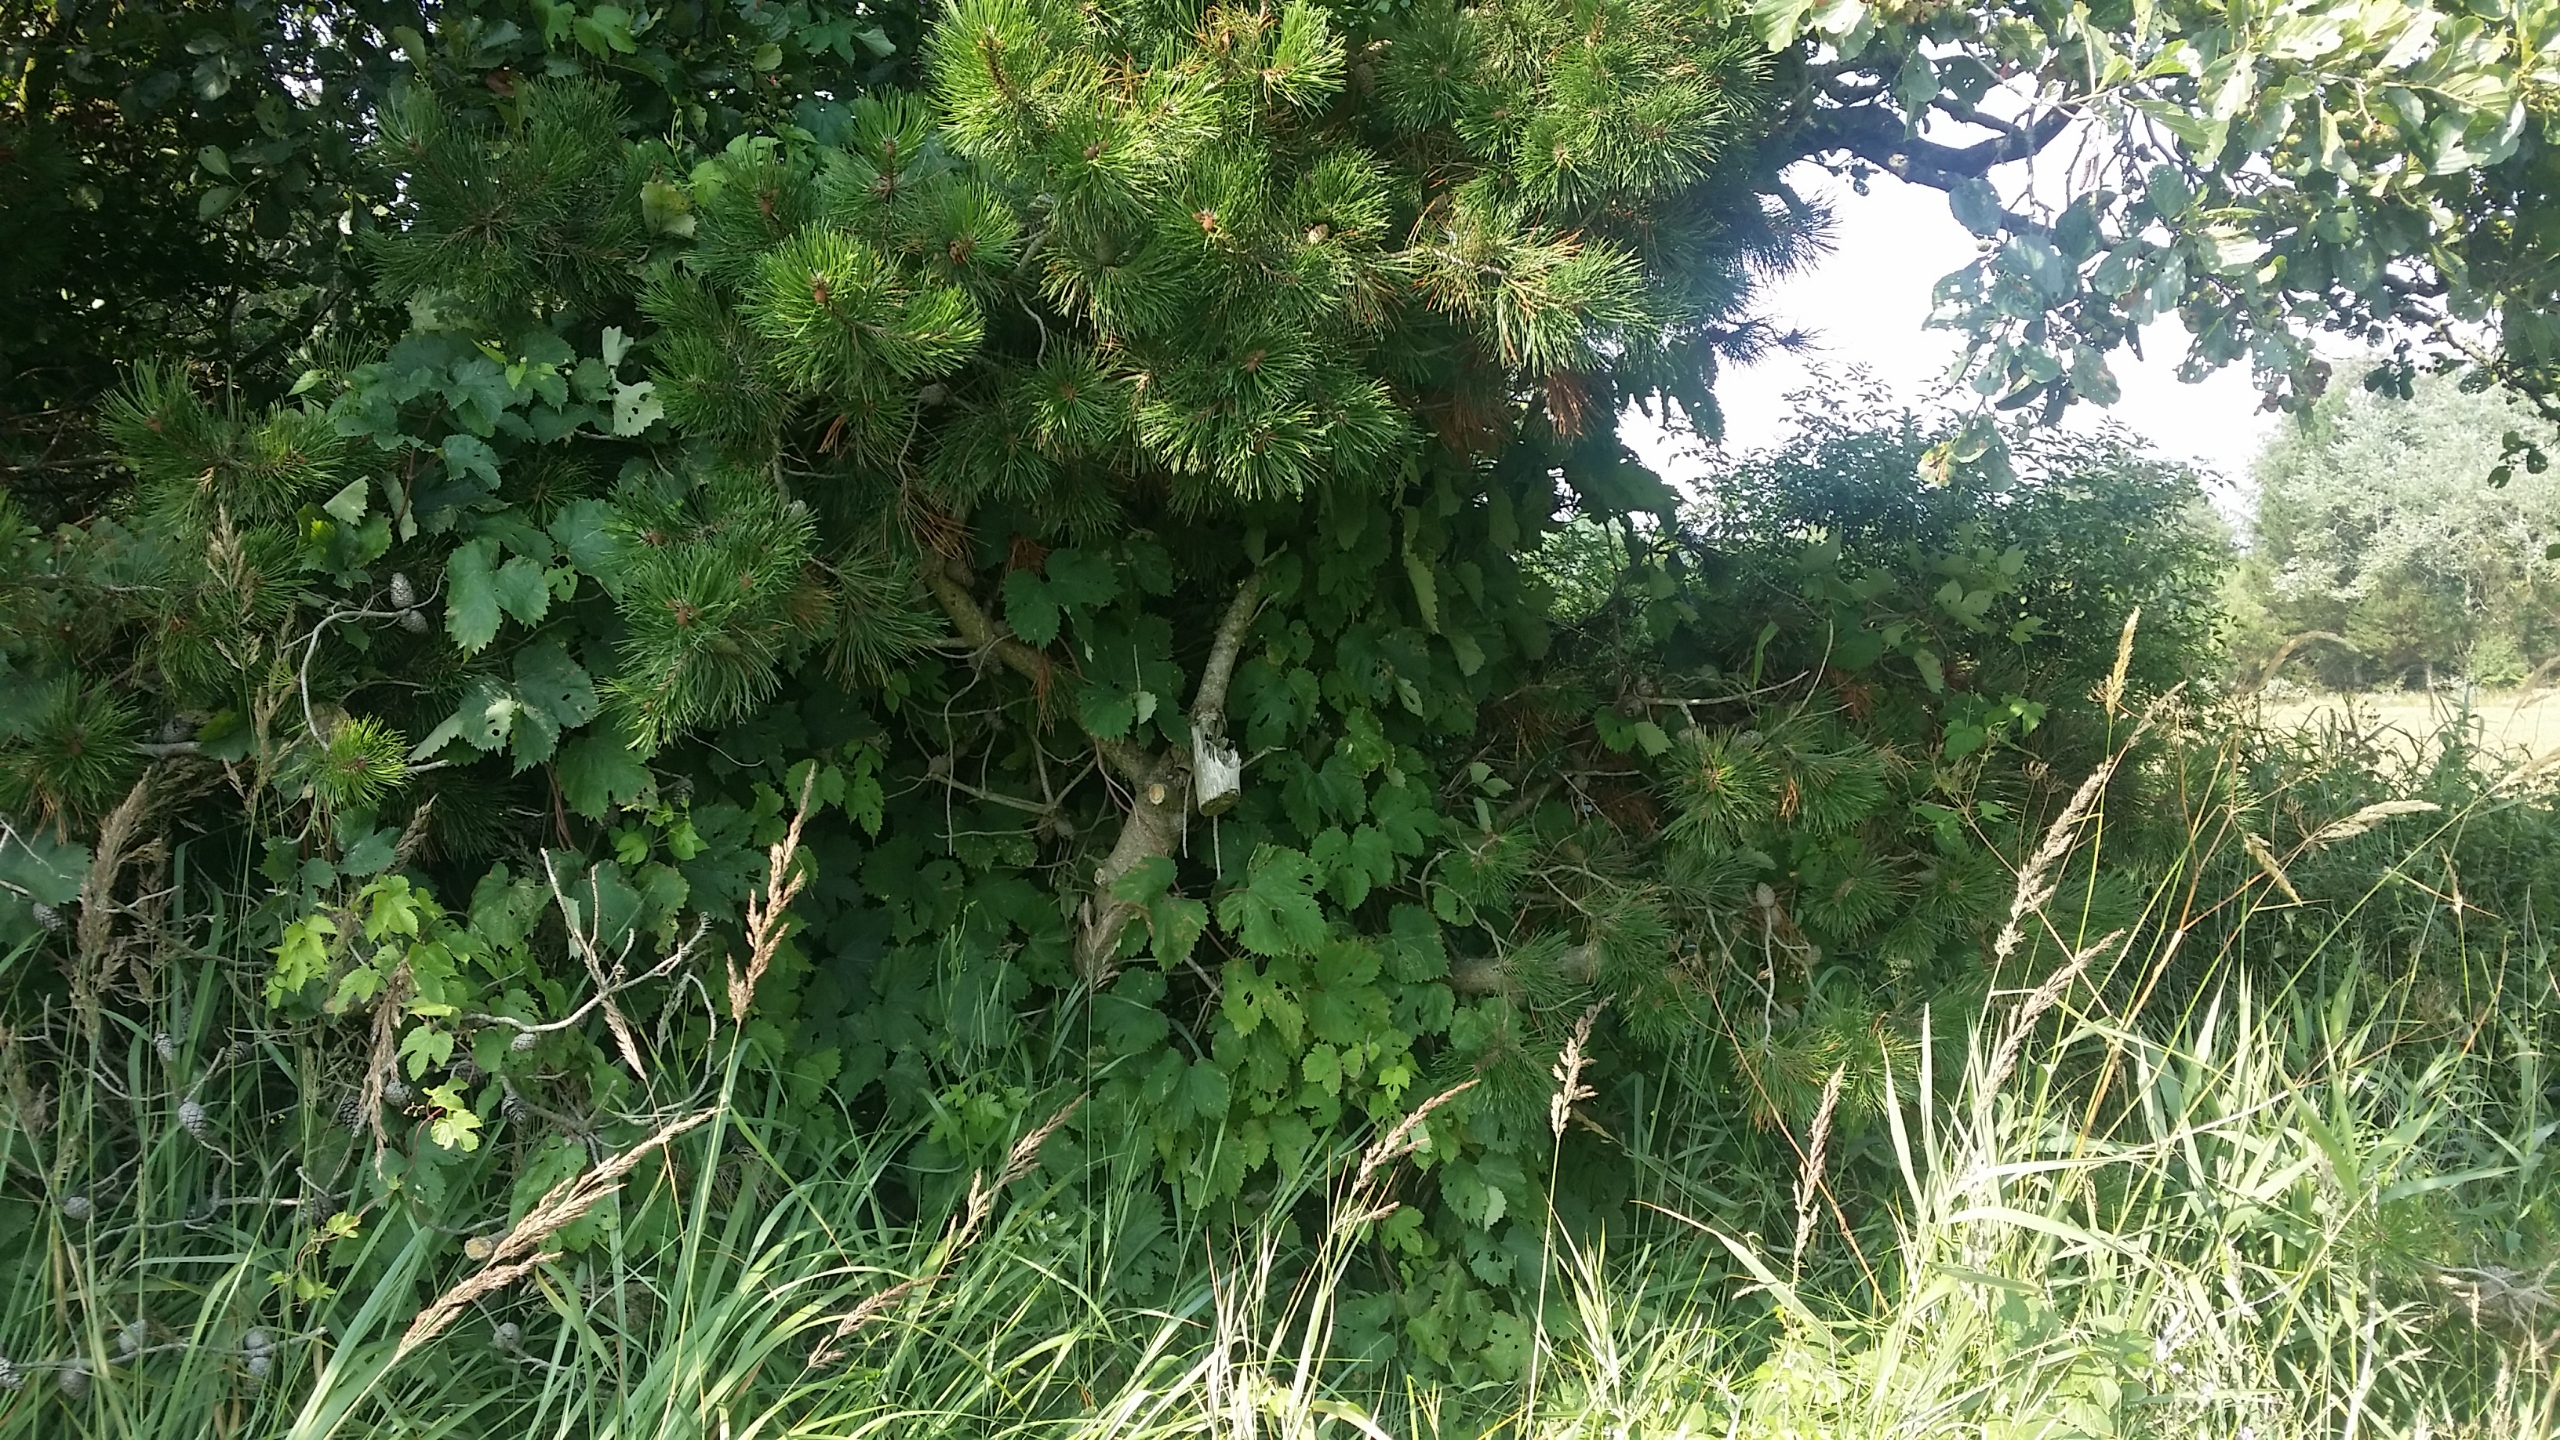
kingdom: Plantae
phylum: Tracheophyta
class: Magnoliopsida
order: Rosales
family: Cannabaceae
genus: Humulus
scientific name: Humulus lupulus
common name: Humle
